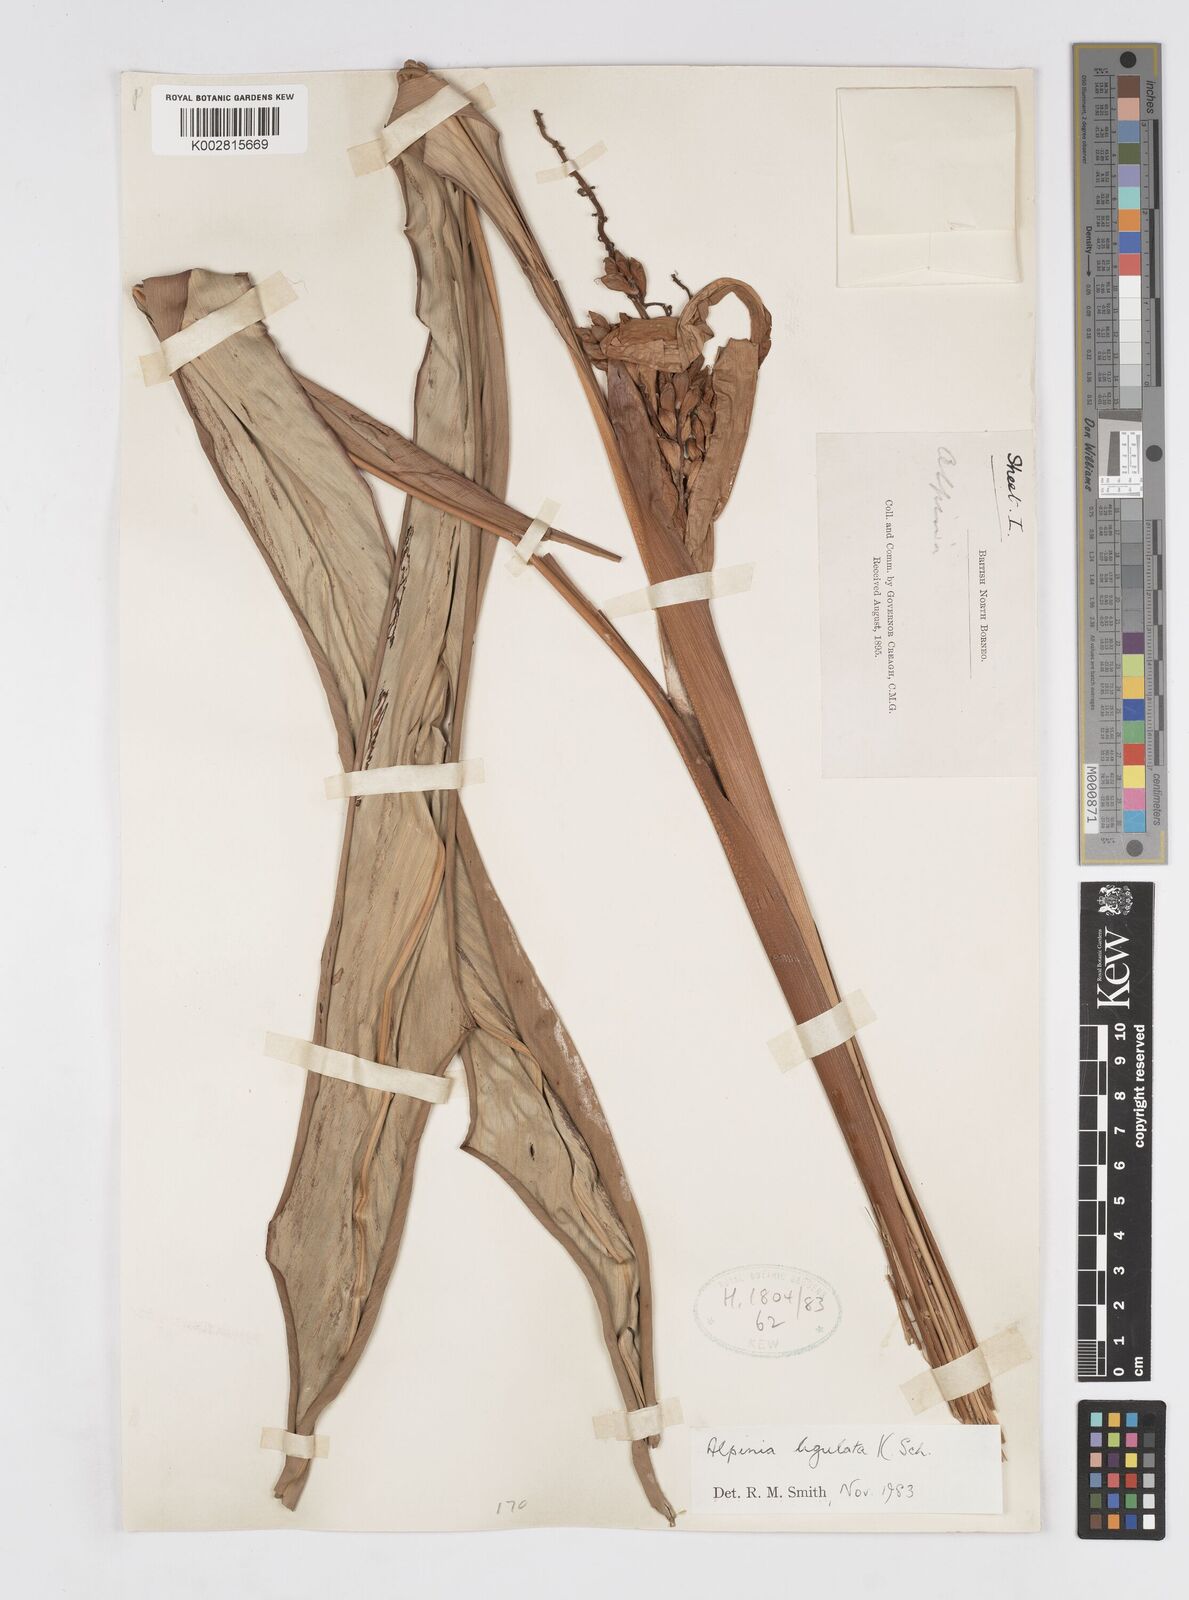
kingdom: Plantae
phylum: Tracheophyta
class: Liliopsida
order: Zingiberales
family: Zingiberaceae
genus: Alpinia
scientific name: Alpinia ligulata
